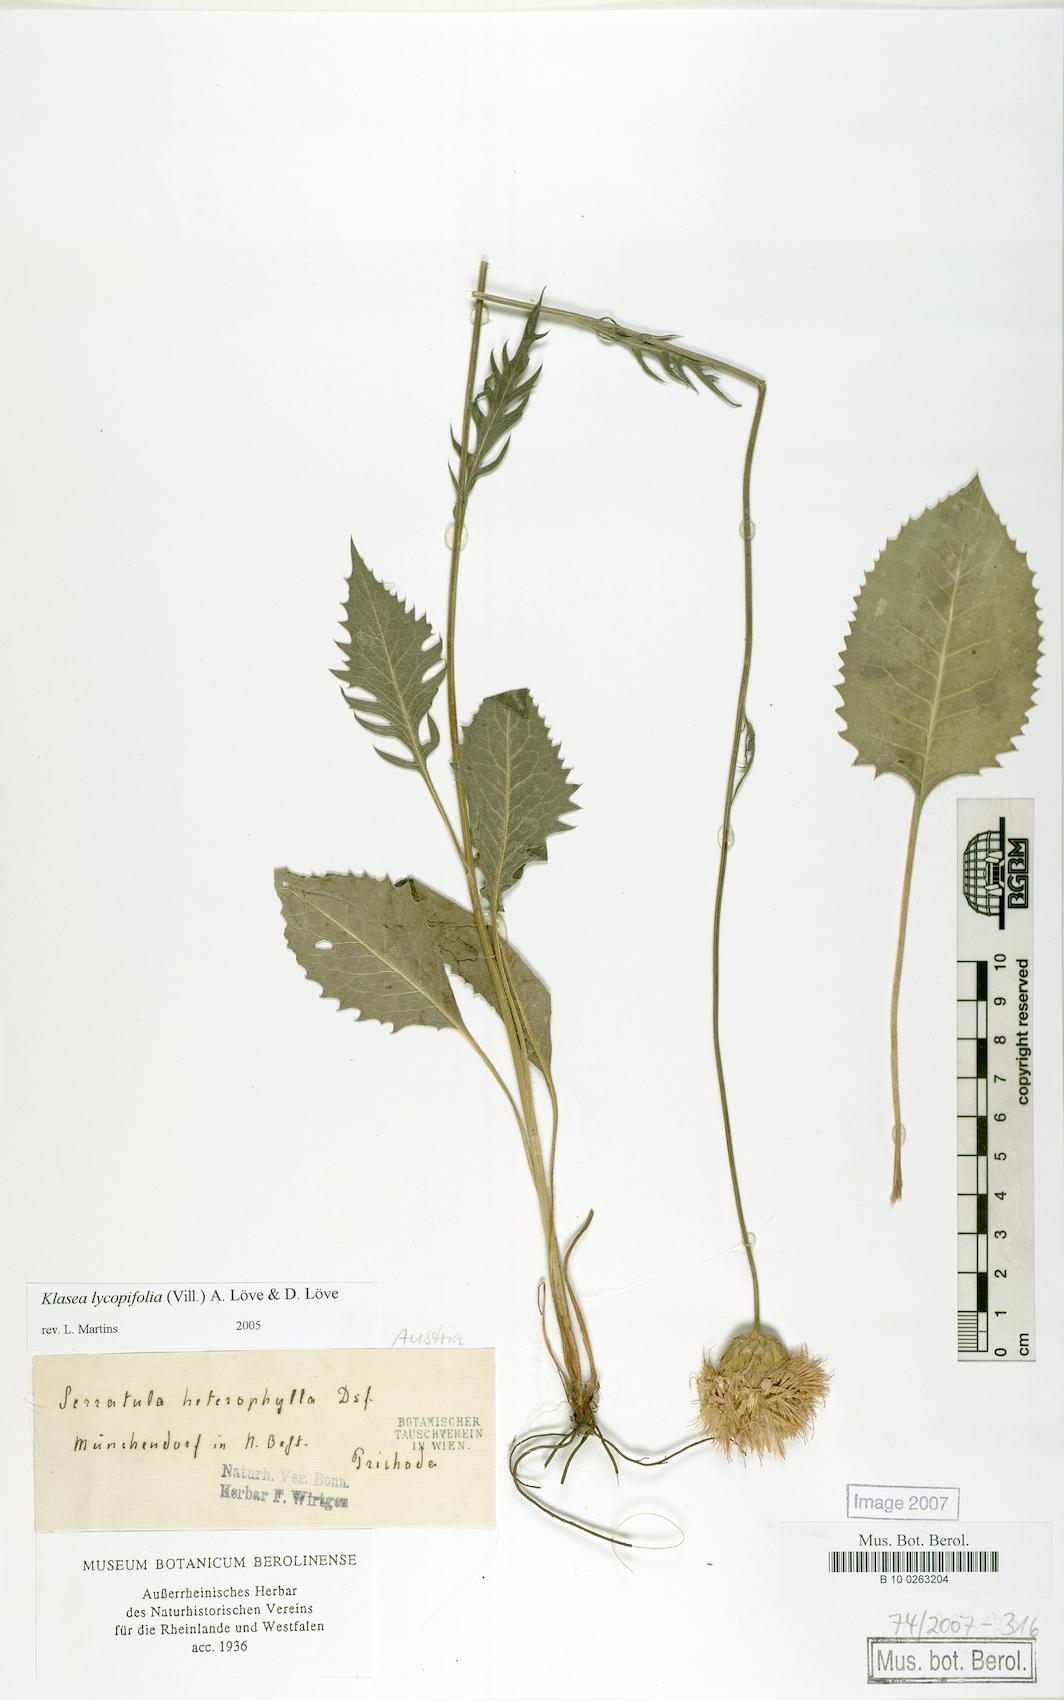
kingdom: Plantae
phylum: Tracheophyta
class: Magnoliopsida
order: Asterales
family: Asteraceae
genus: Klasea
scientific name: Klasea lycopifolia
